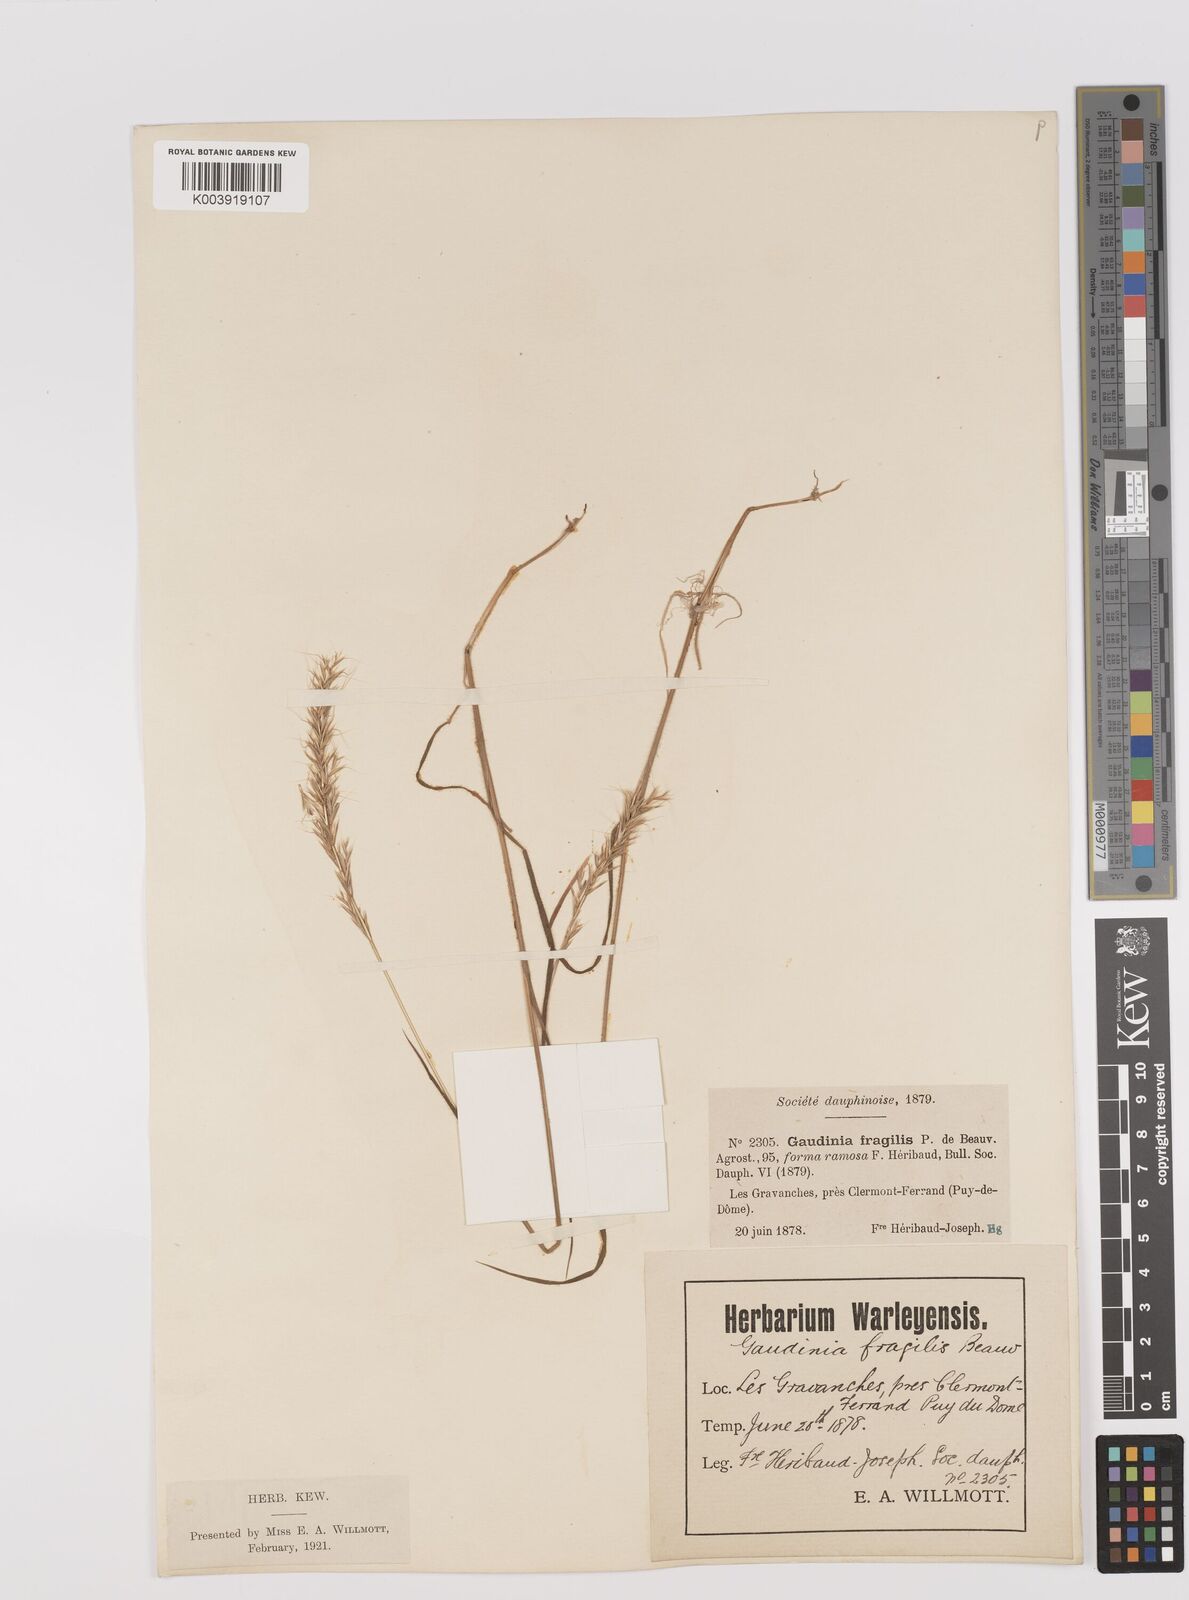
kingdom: Plantae
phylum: Tracheophyta
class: Liliopsida
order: Poales
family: Poaceae
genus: Gaudinia
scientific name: Gaudinia fragilis
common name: French oat-grass
